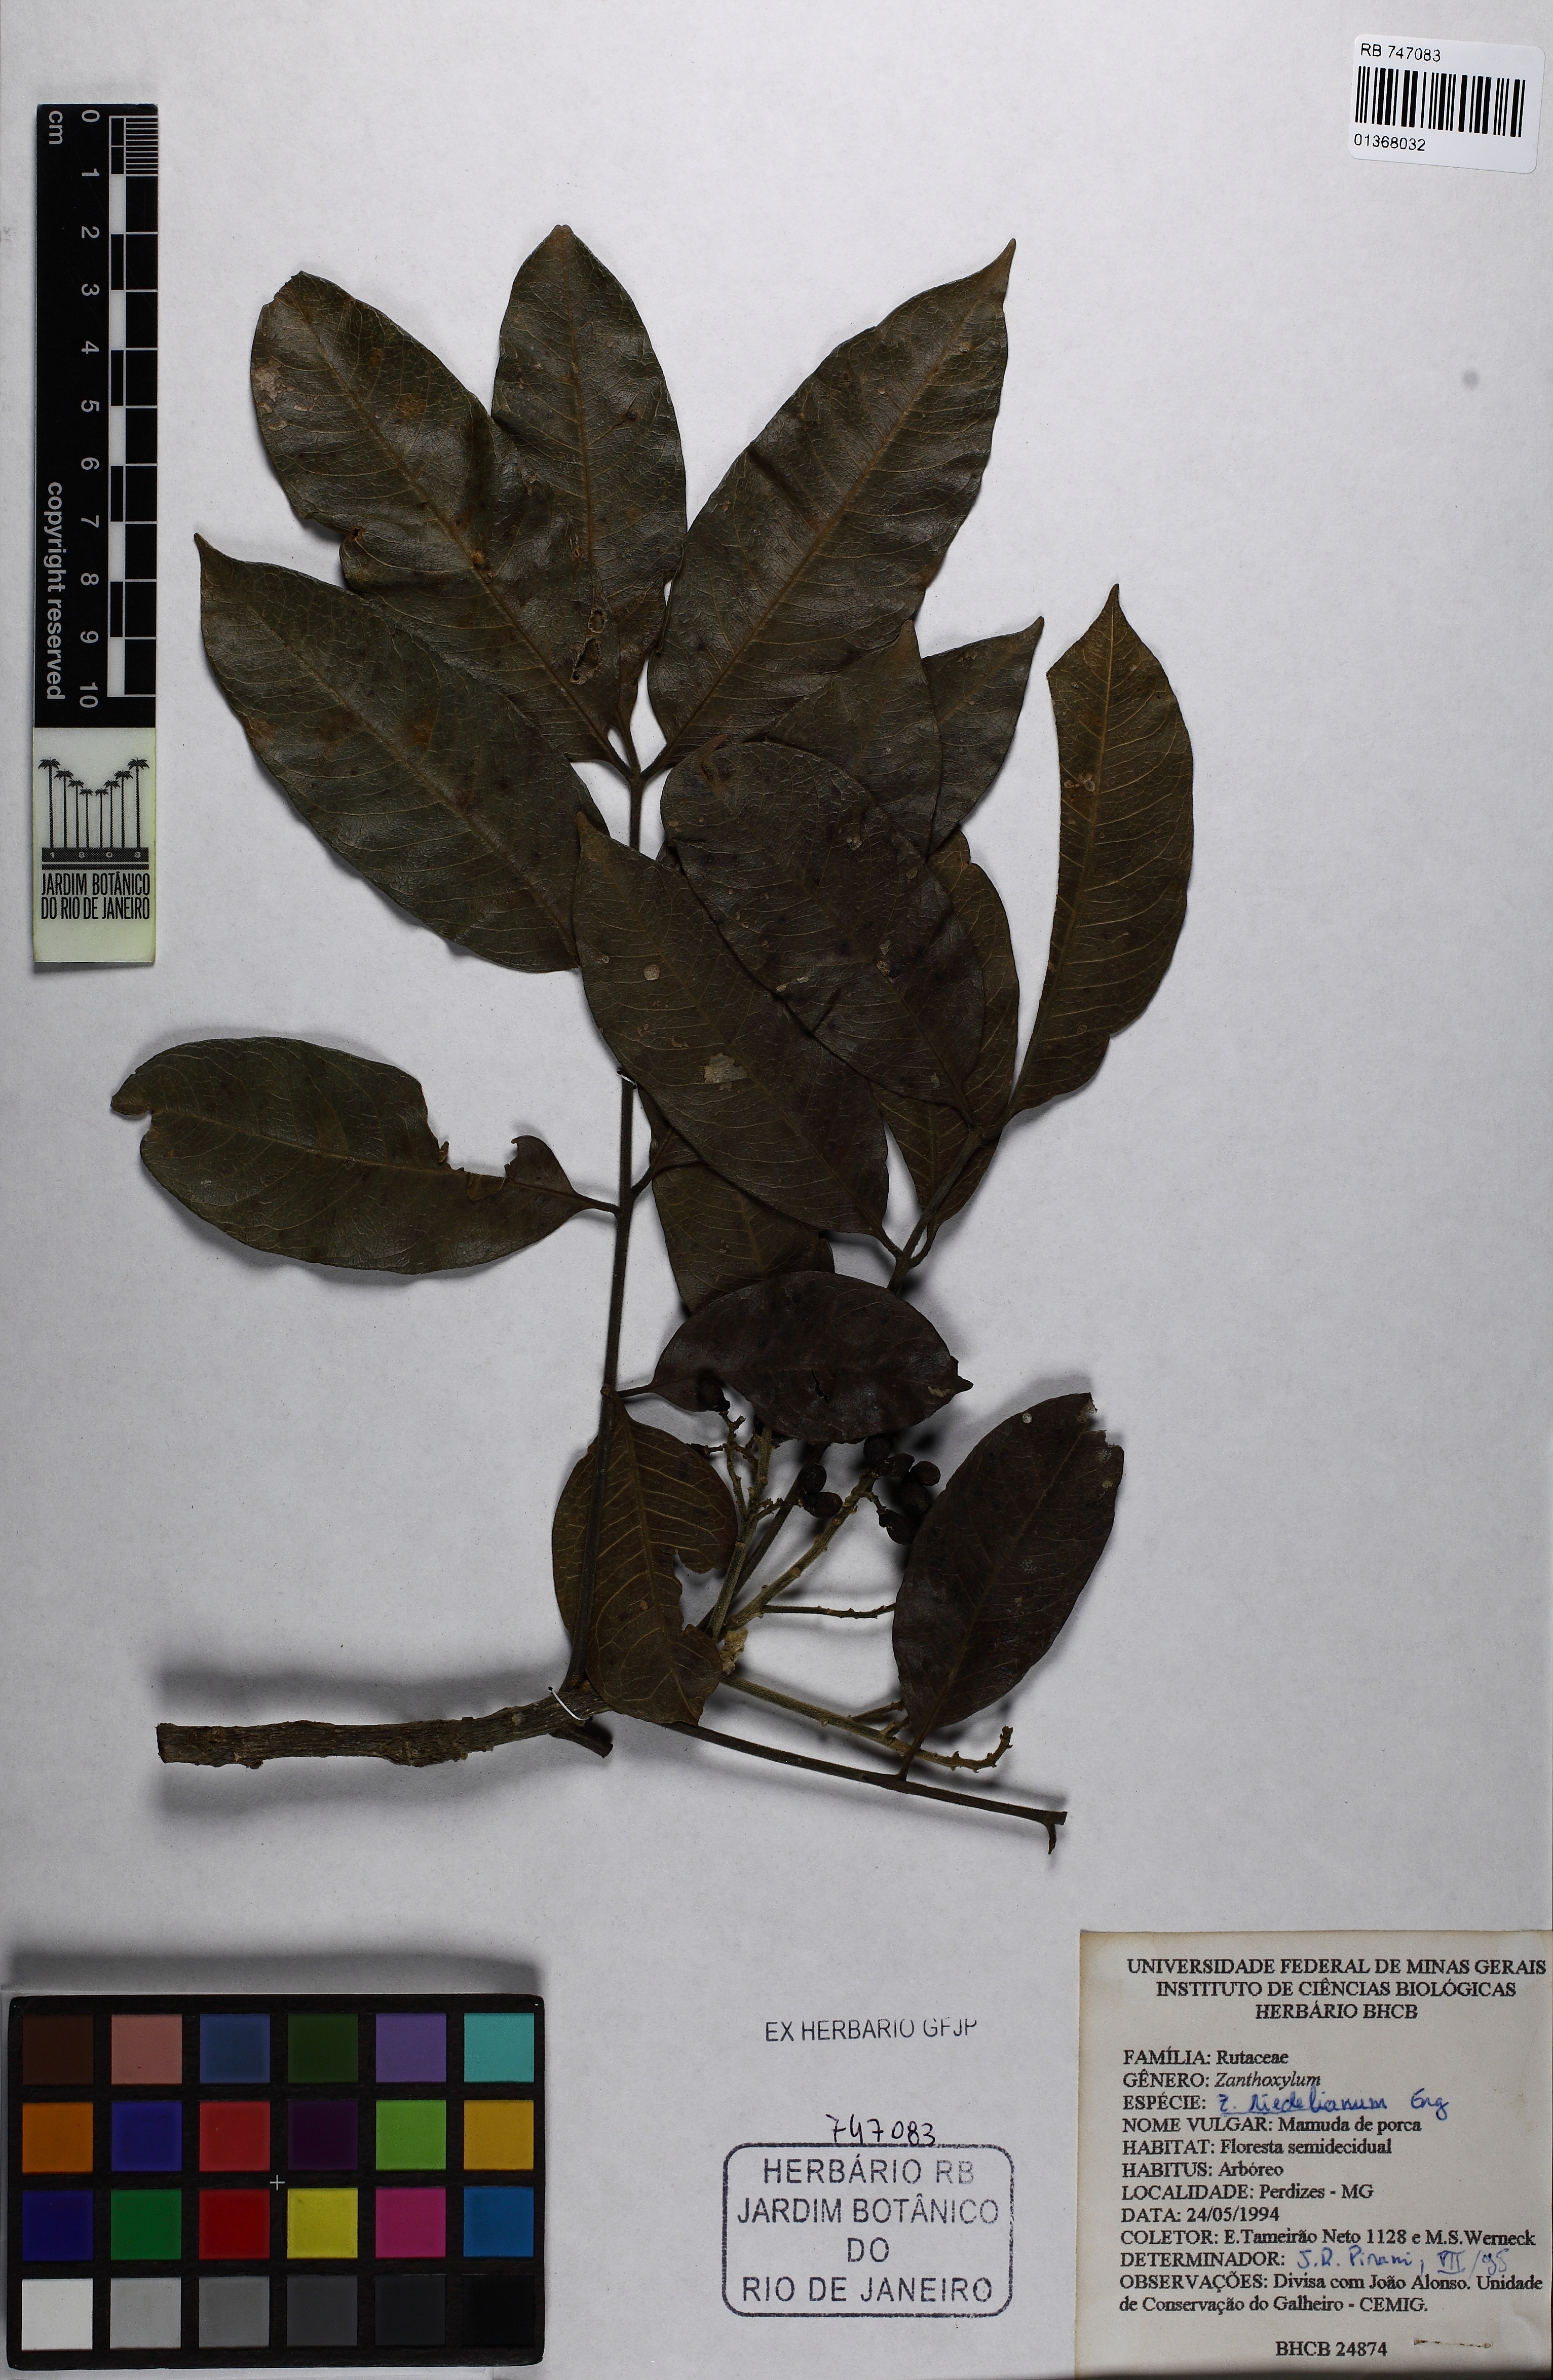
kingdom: Plantae
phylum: Tracheophyta
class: Magnoliopsida
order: Sapindales
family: Rutaceae
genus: Zanthoxylum
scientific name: Zanthoxylum
